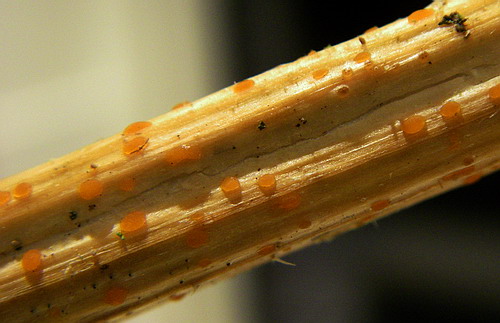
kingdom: Fungi
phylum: Ascomycota
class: Leotiomycetes
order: Helotiales
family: Calloriaceae
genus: Calloria
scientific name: Calloria urticae
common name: nælde-orangeskive
